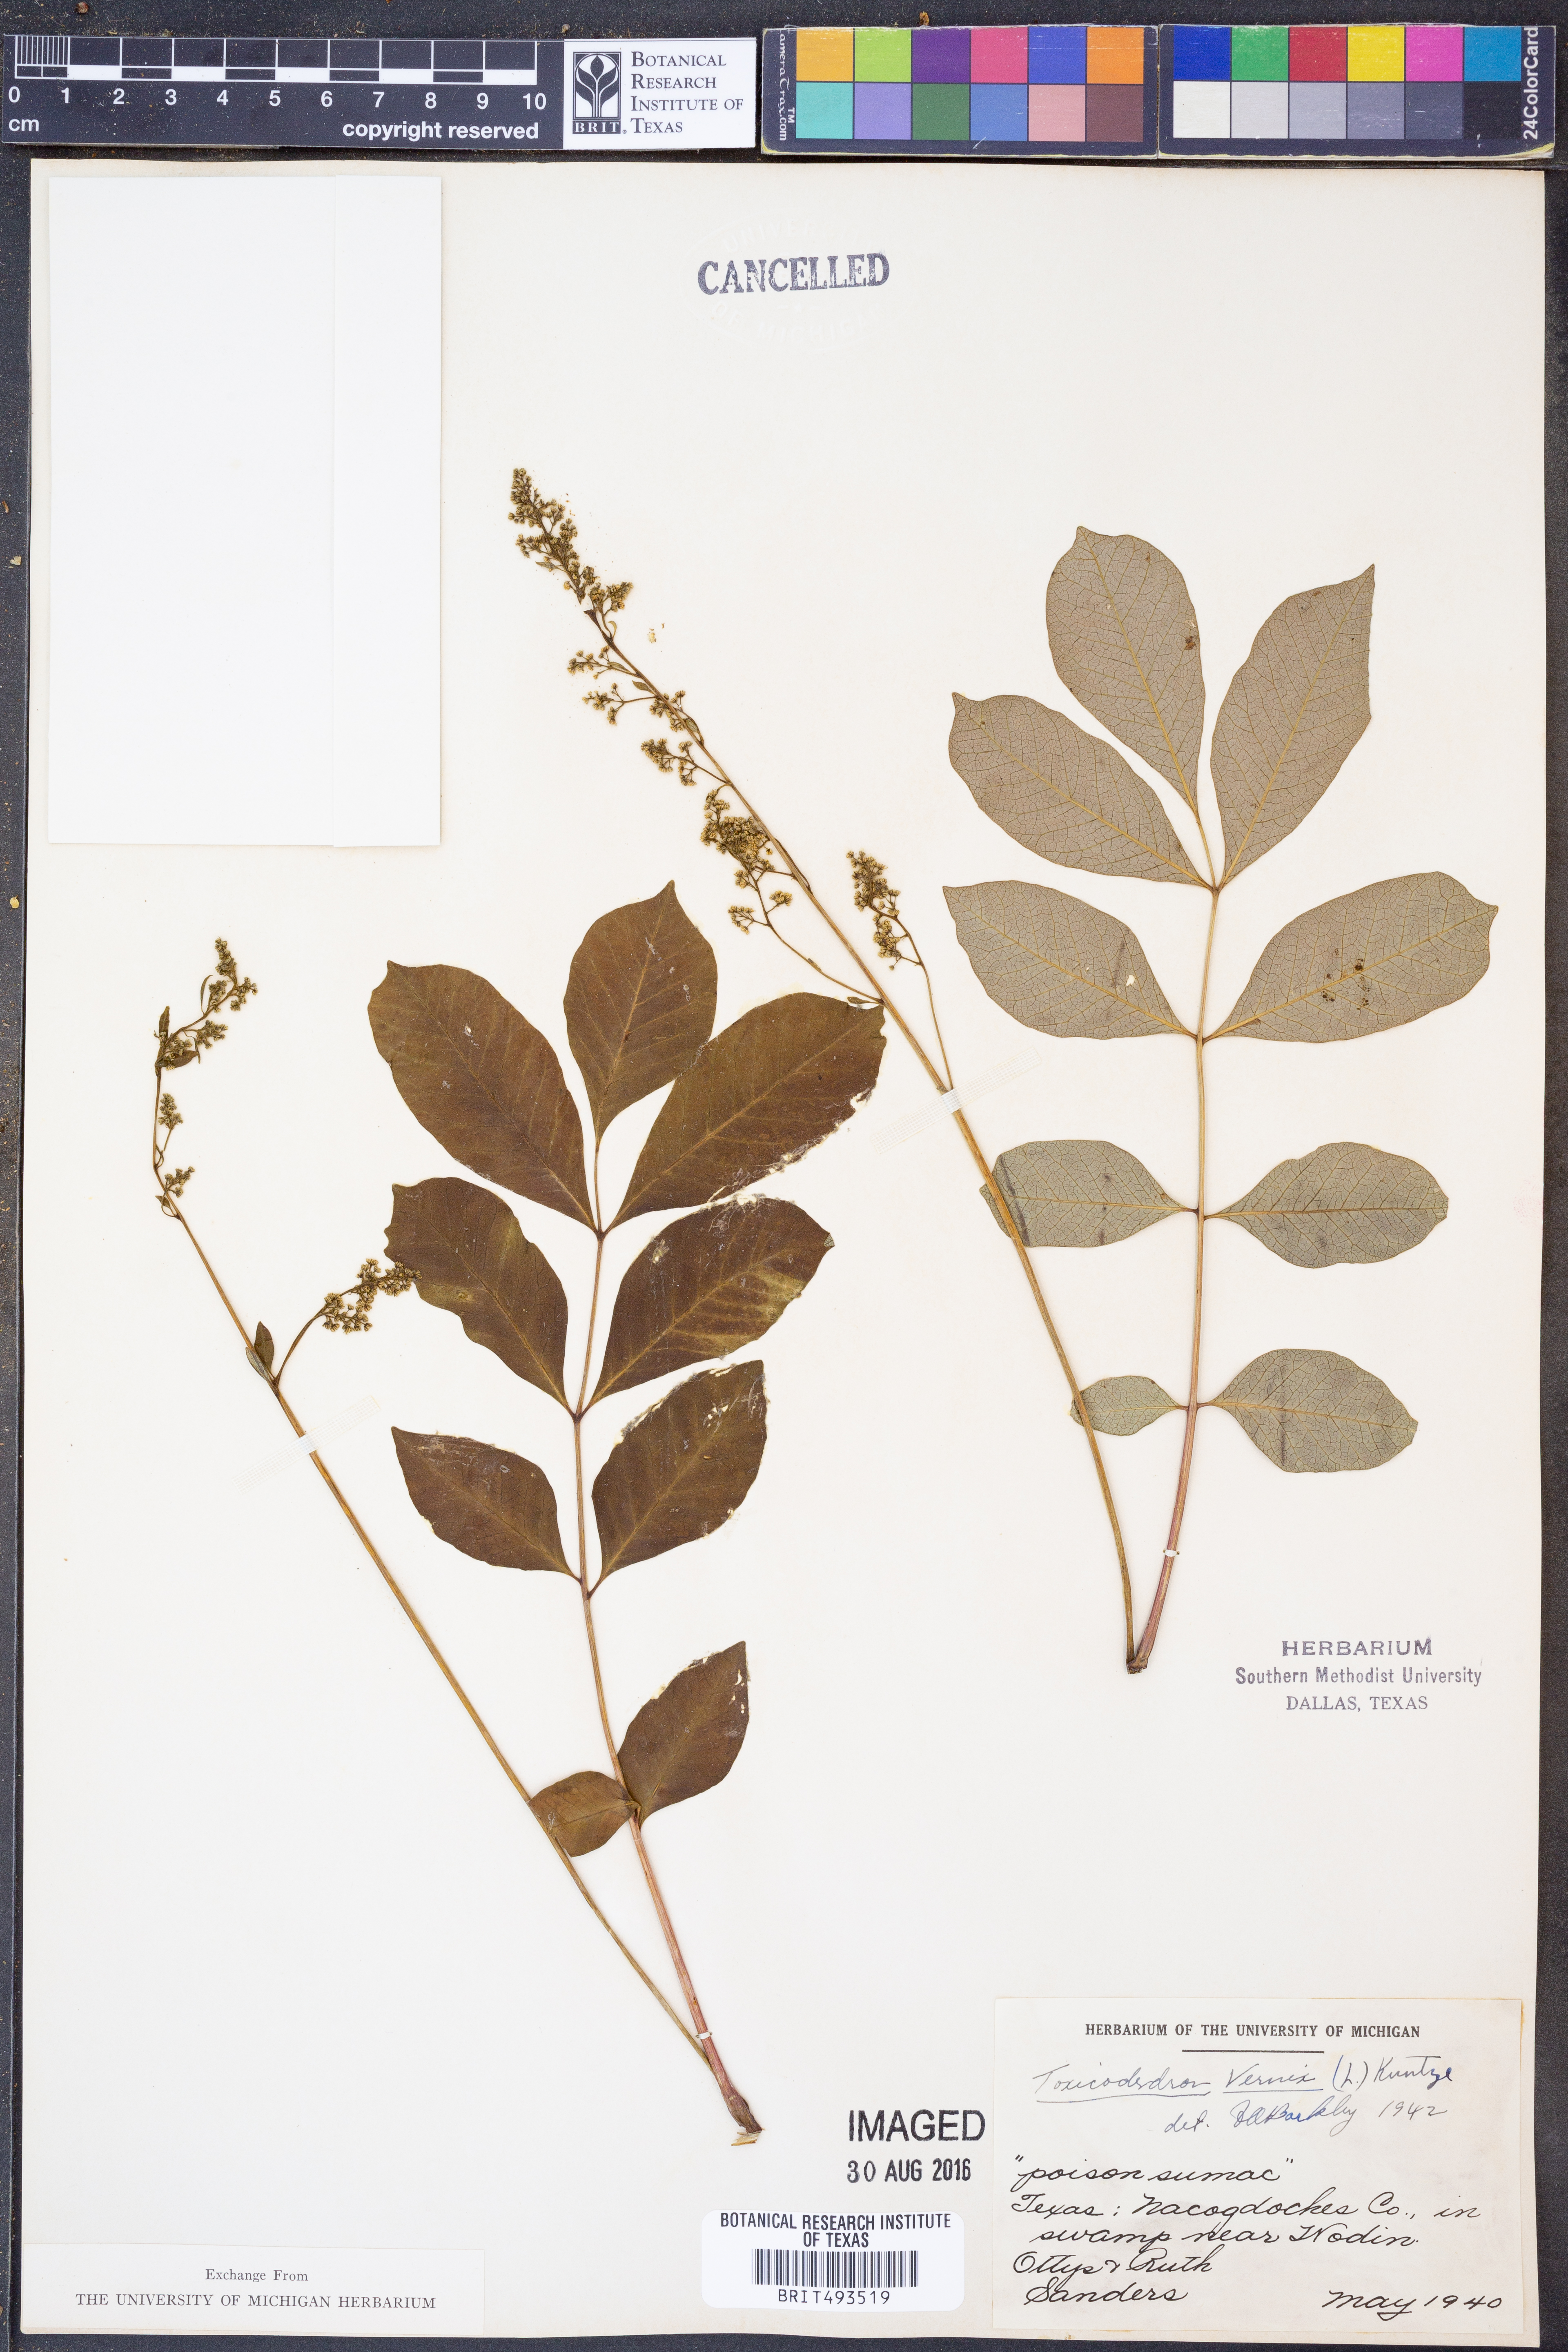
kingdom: Plantae
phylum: Tracheophyta
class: Magnoliopsida
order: Sapindales
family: Anacardiaceae
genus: Toxicodendron
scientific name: Toxicodendron vernix
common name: Poison sumac
